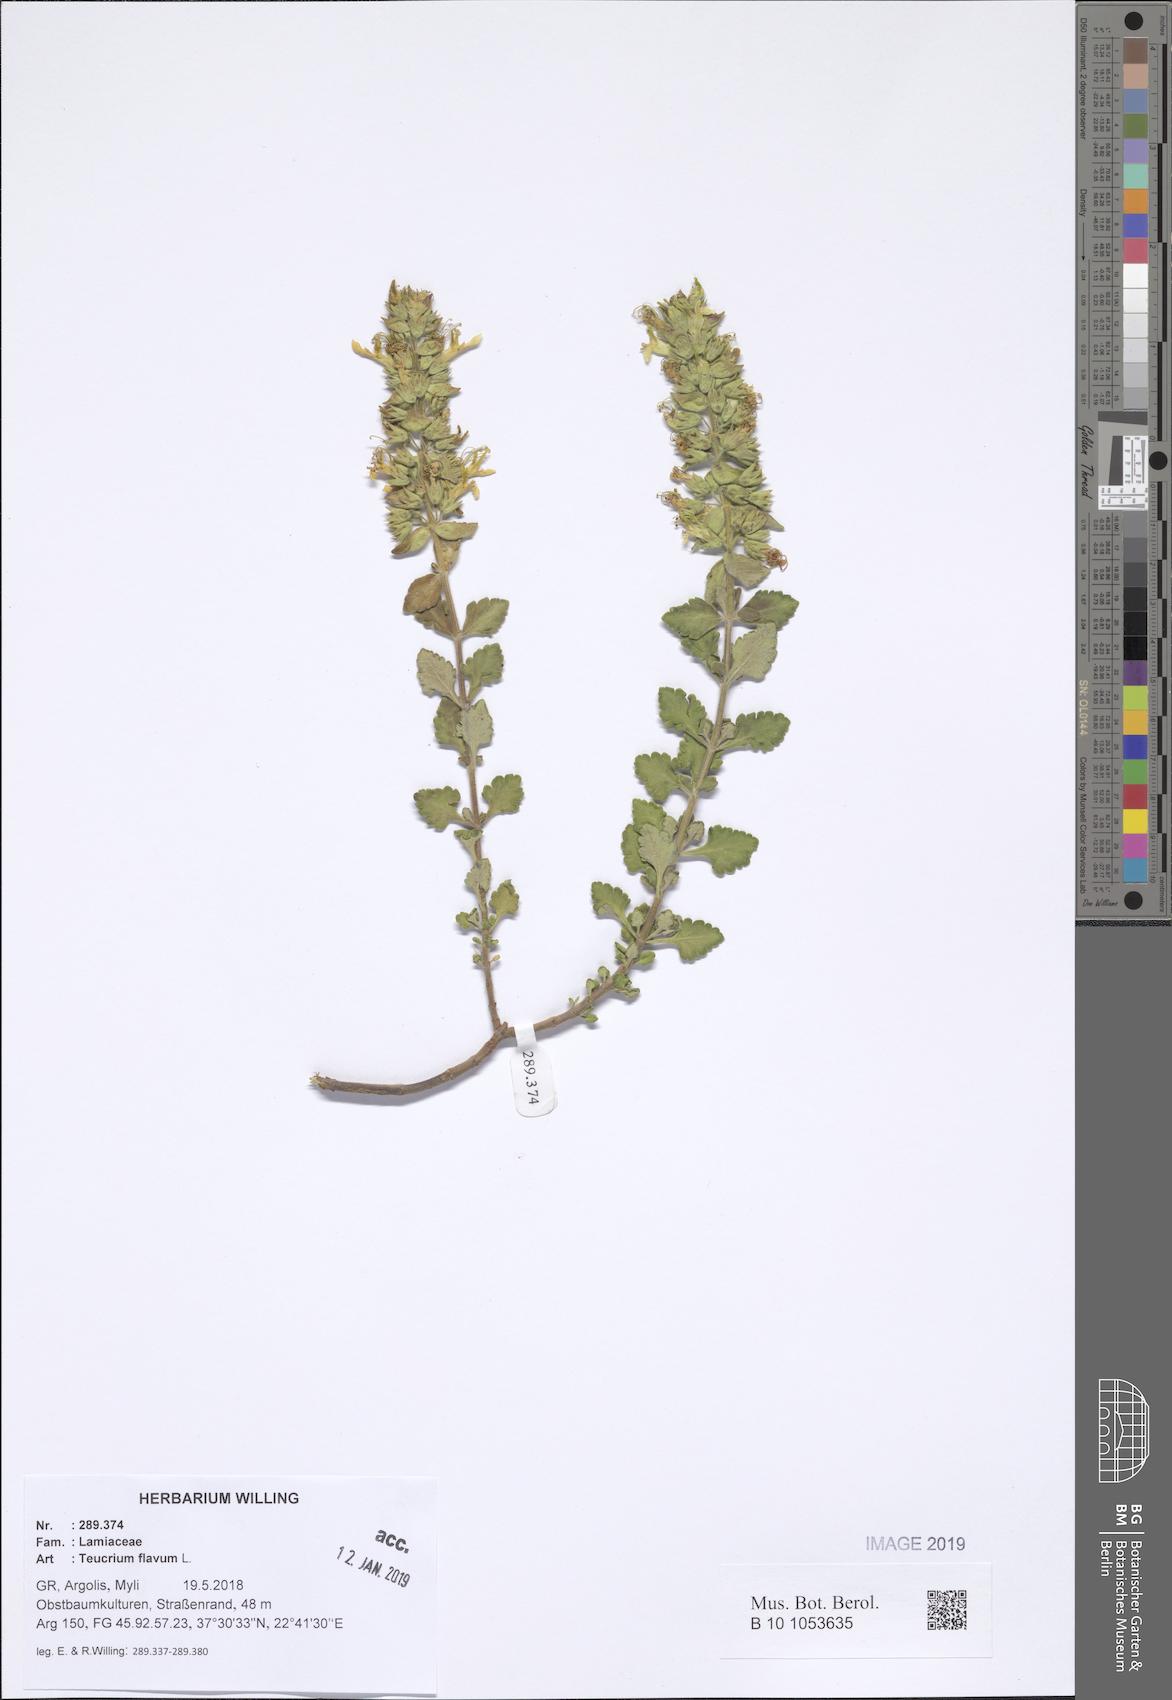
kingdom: Plantae
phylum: Tracheophyta
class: Magnoliopsida
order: Lamiales
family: Lamiaceae
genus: Teucrium
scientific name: Teucrium flavum
